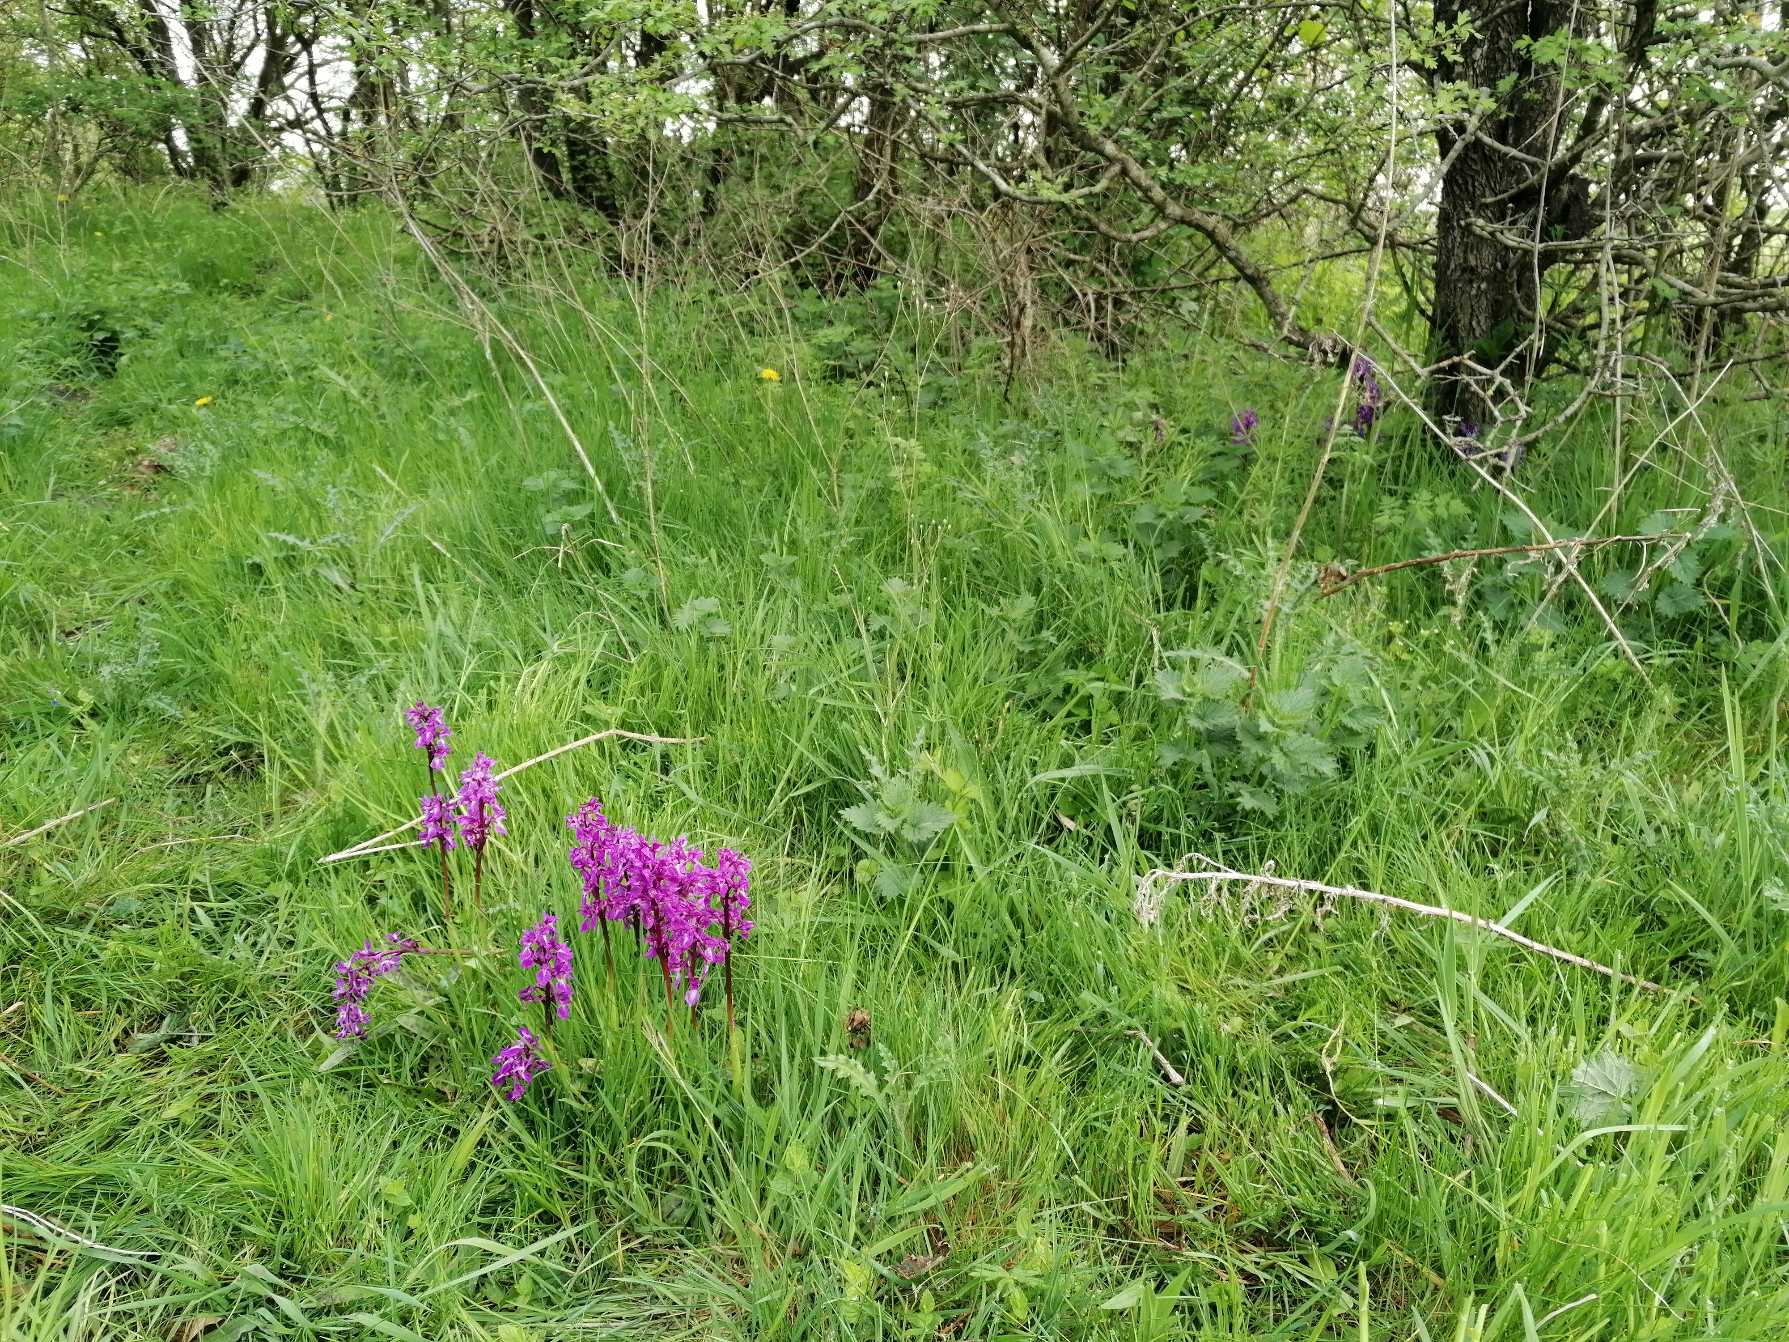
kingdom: Plantae
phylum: Tracheophyta
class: Liliopsida
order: Asparagales
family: Orchidaceae
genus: Orchis
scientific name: Orchis mascula
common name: Tyndakset gøgeurt
